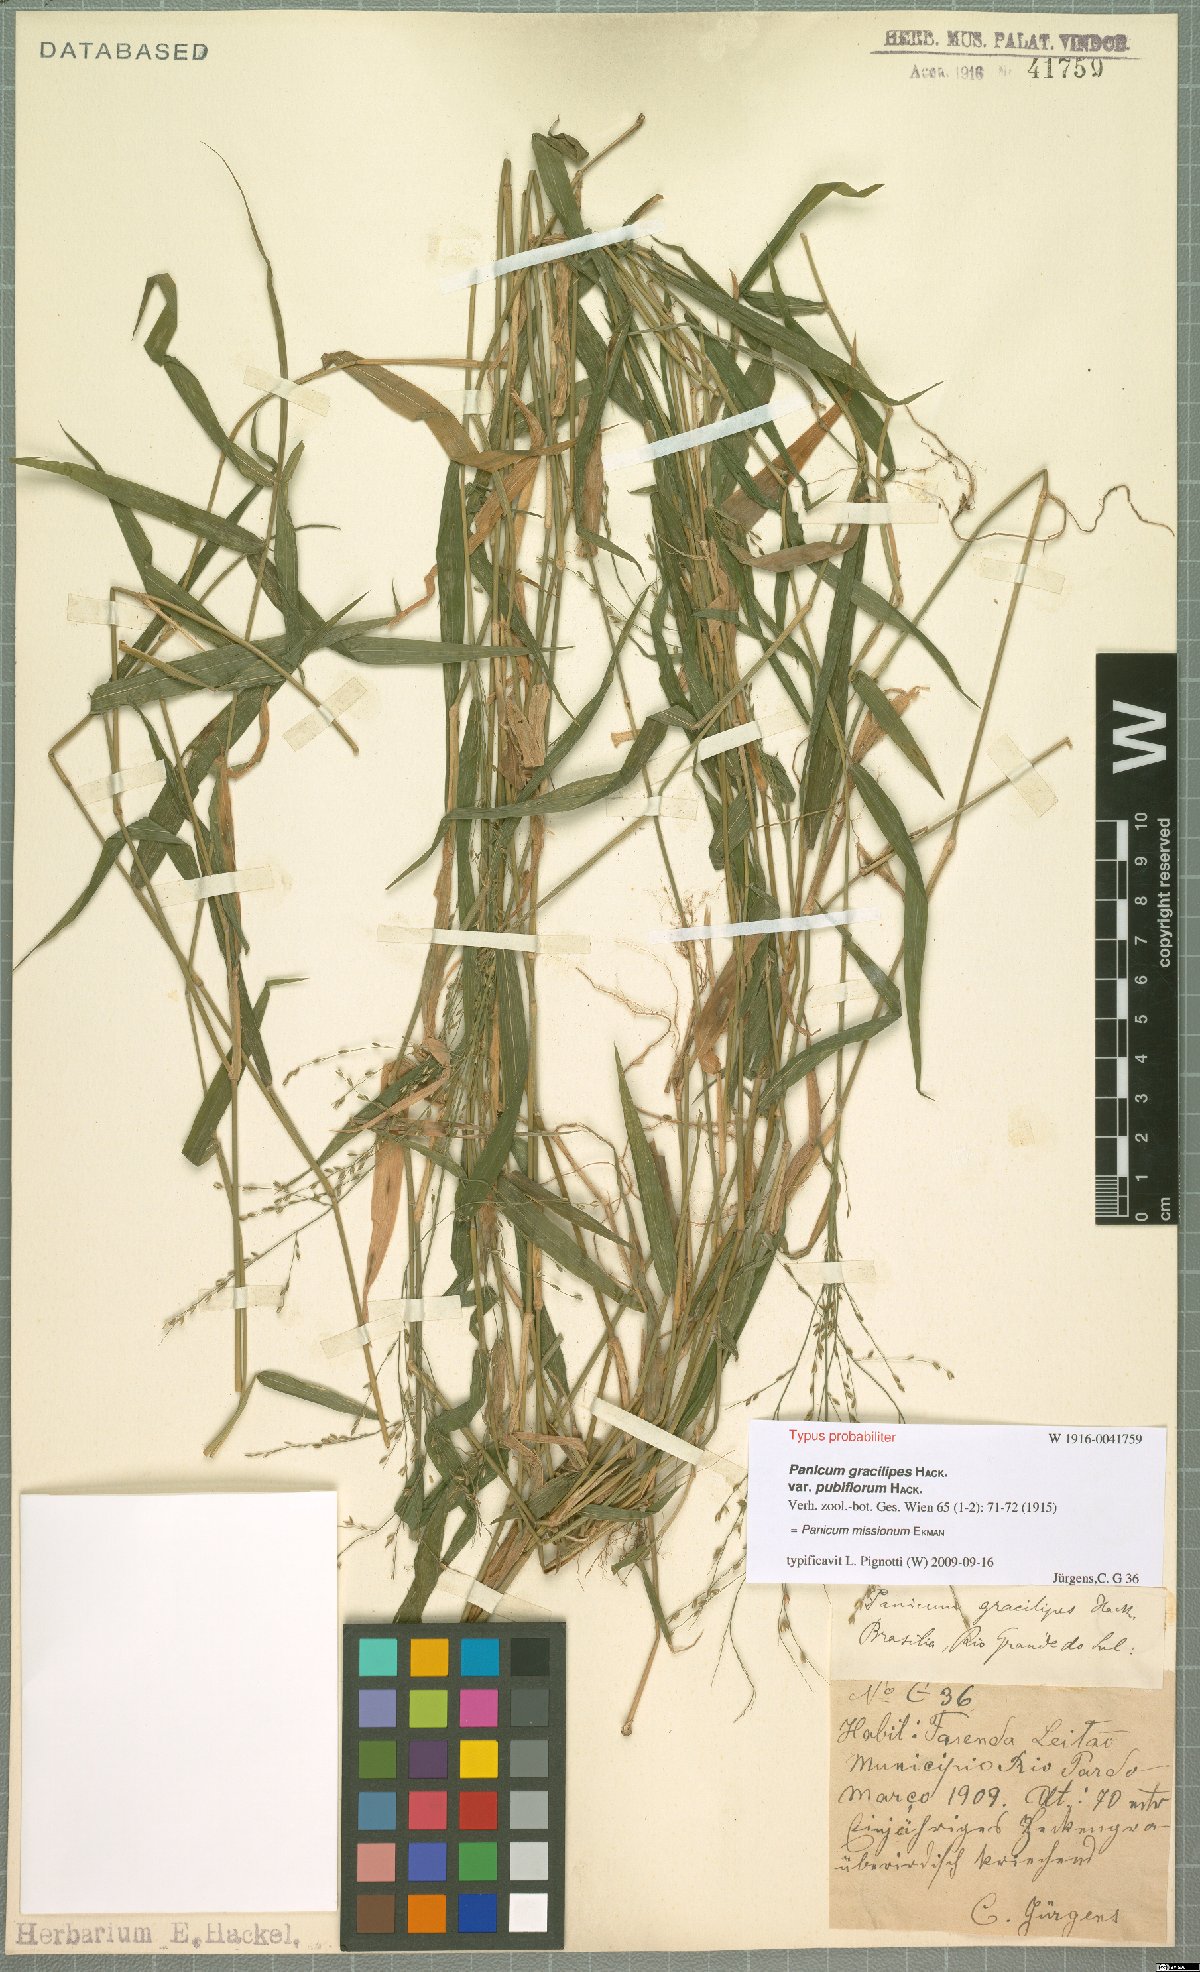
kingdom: Plantae
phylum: Tracheophyta
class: Liliopsida
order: Poales
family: Poaceae
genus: Parodiophyllochloa
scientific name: Parodiophyllochloa missiona
